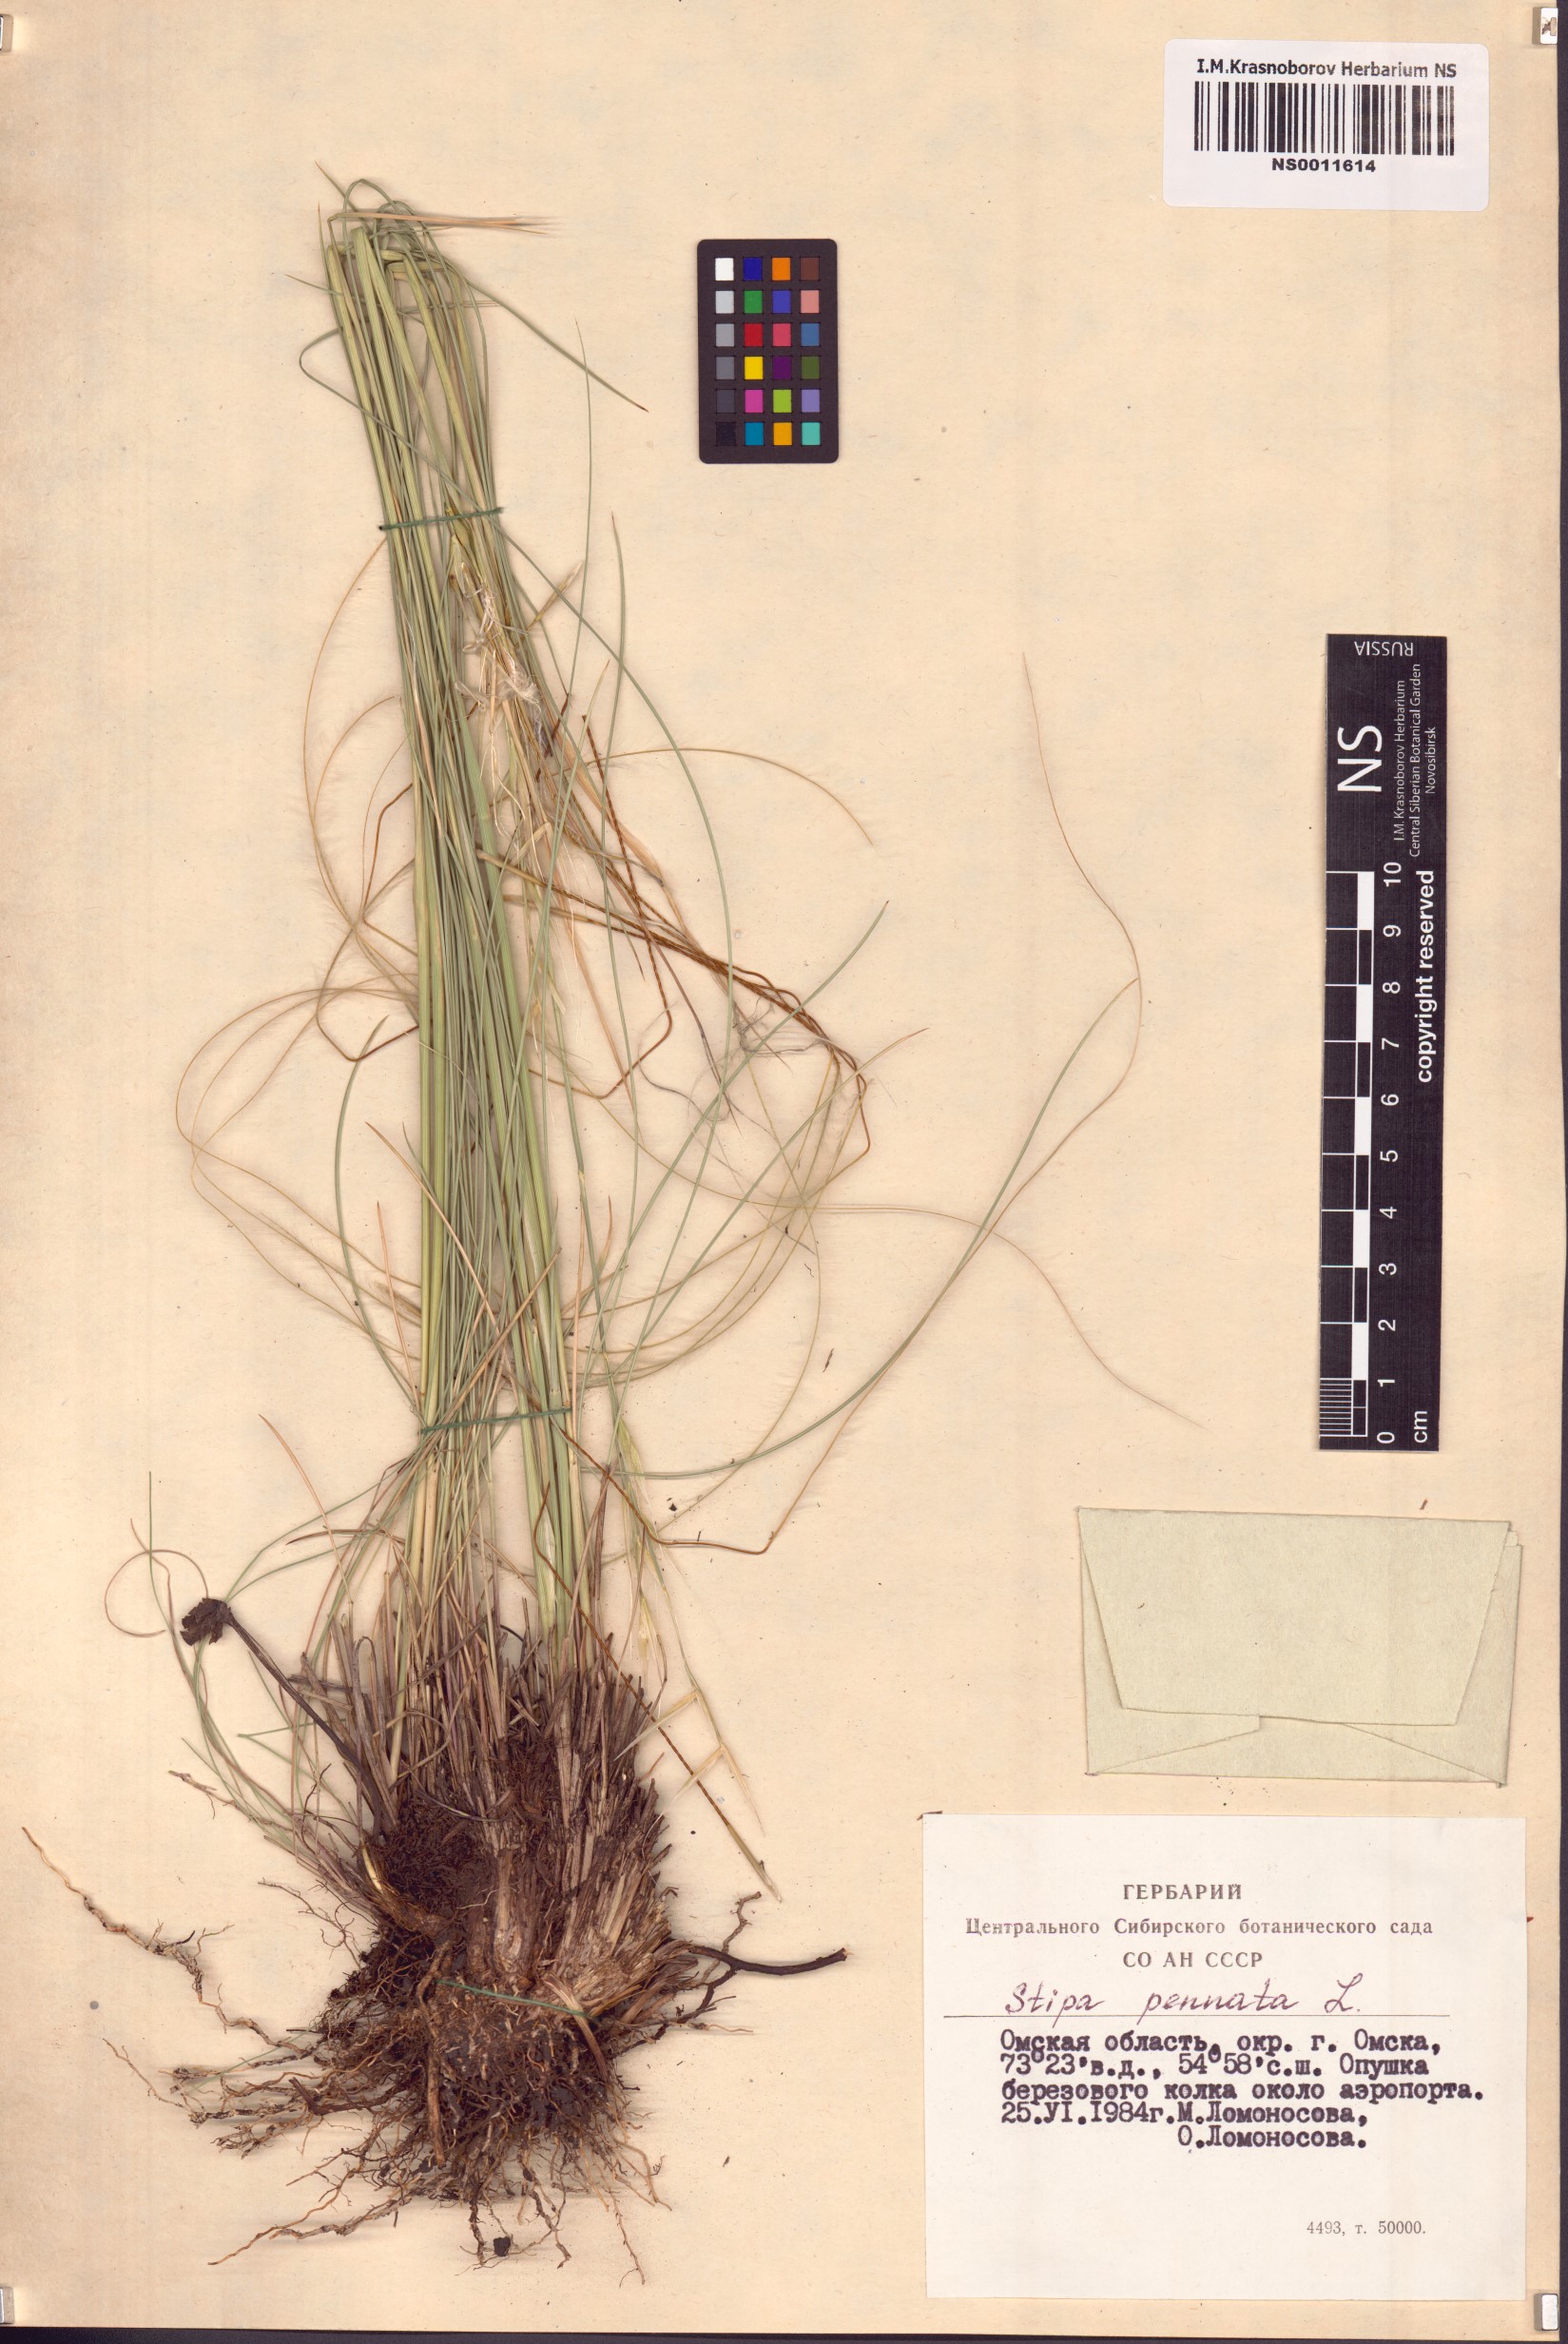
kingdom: Plantae
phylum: Tracheophyta
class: Liliopsida
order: Poales
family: Poaceae
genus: Stipa
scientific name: Stipa pennata
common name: European feather grass
